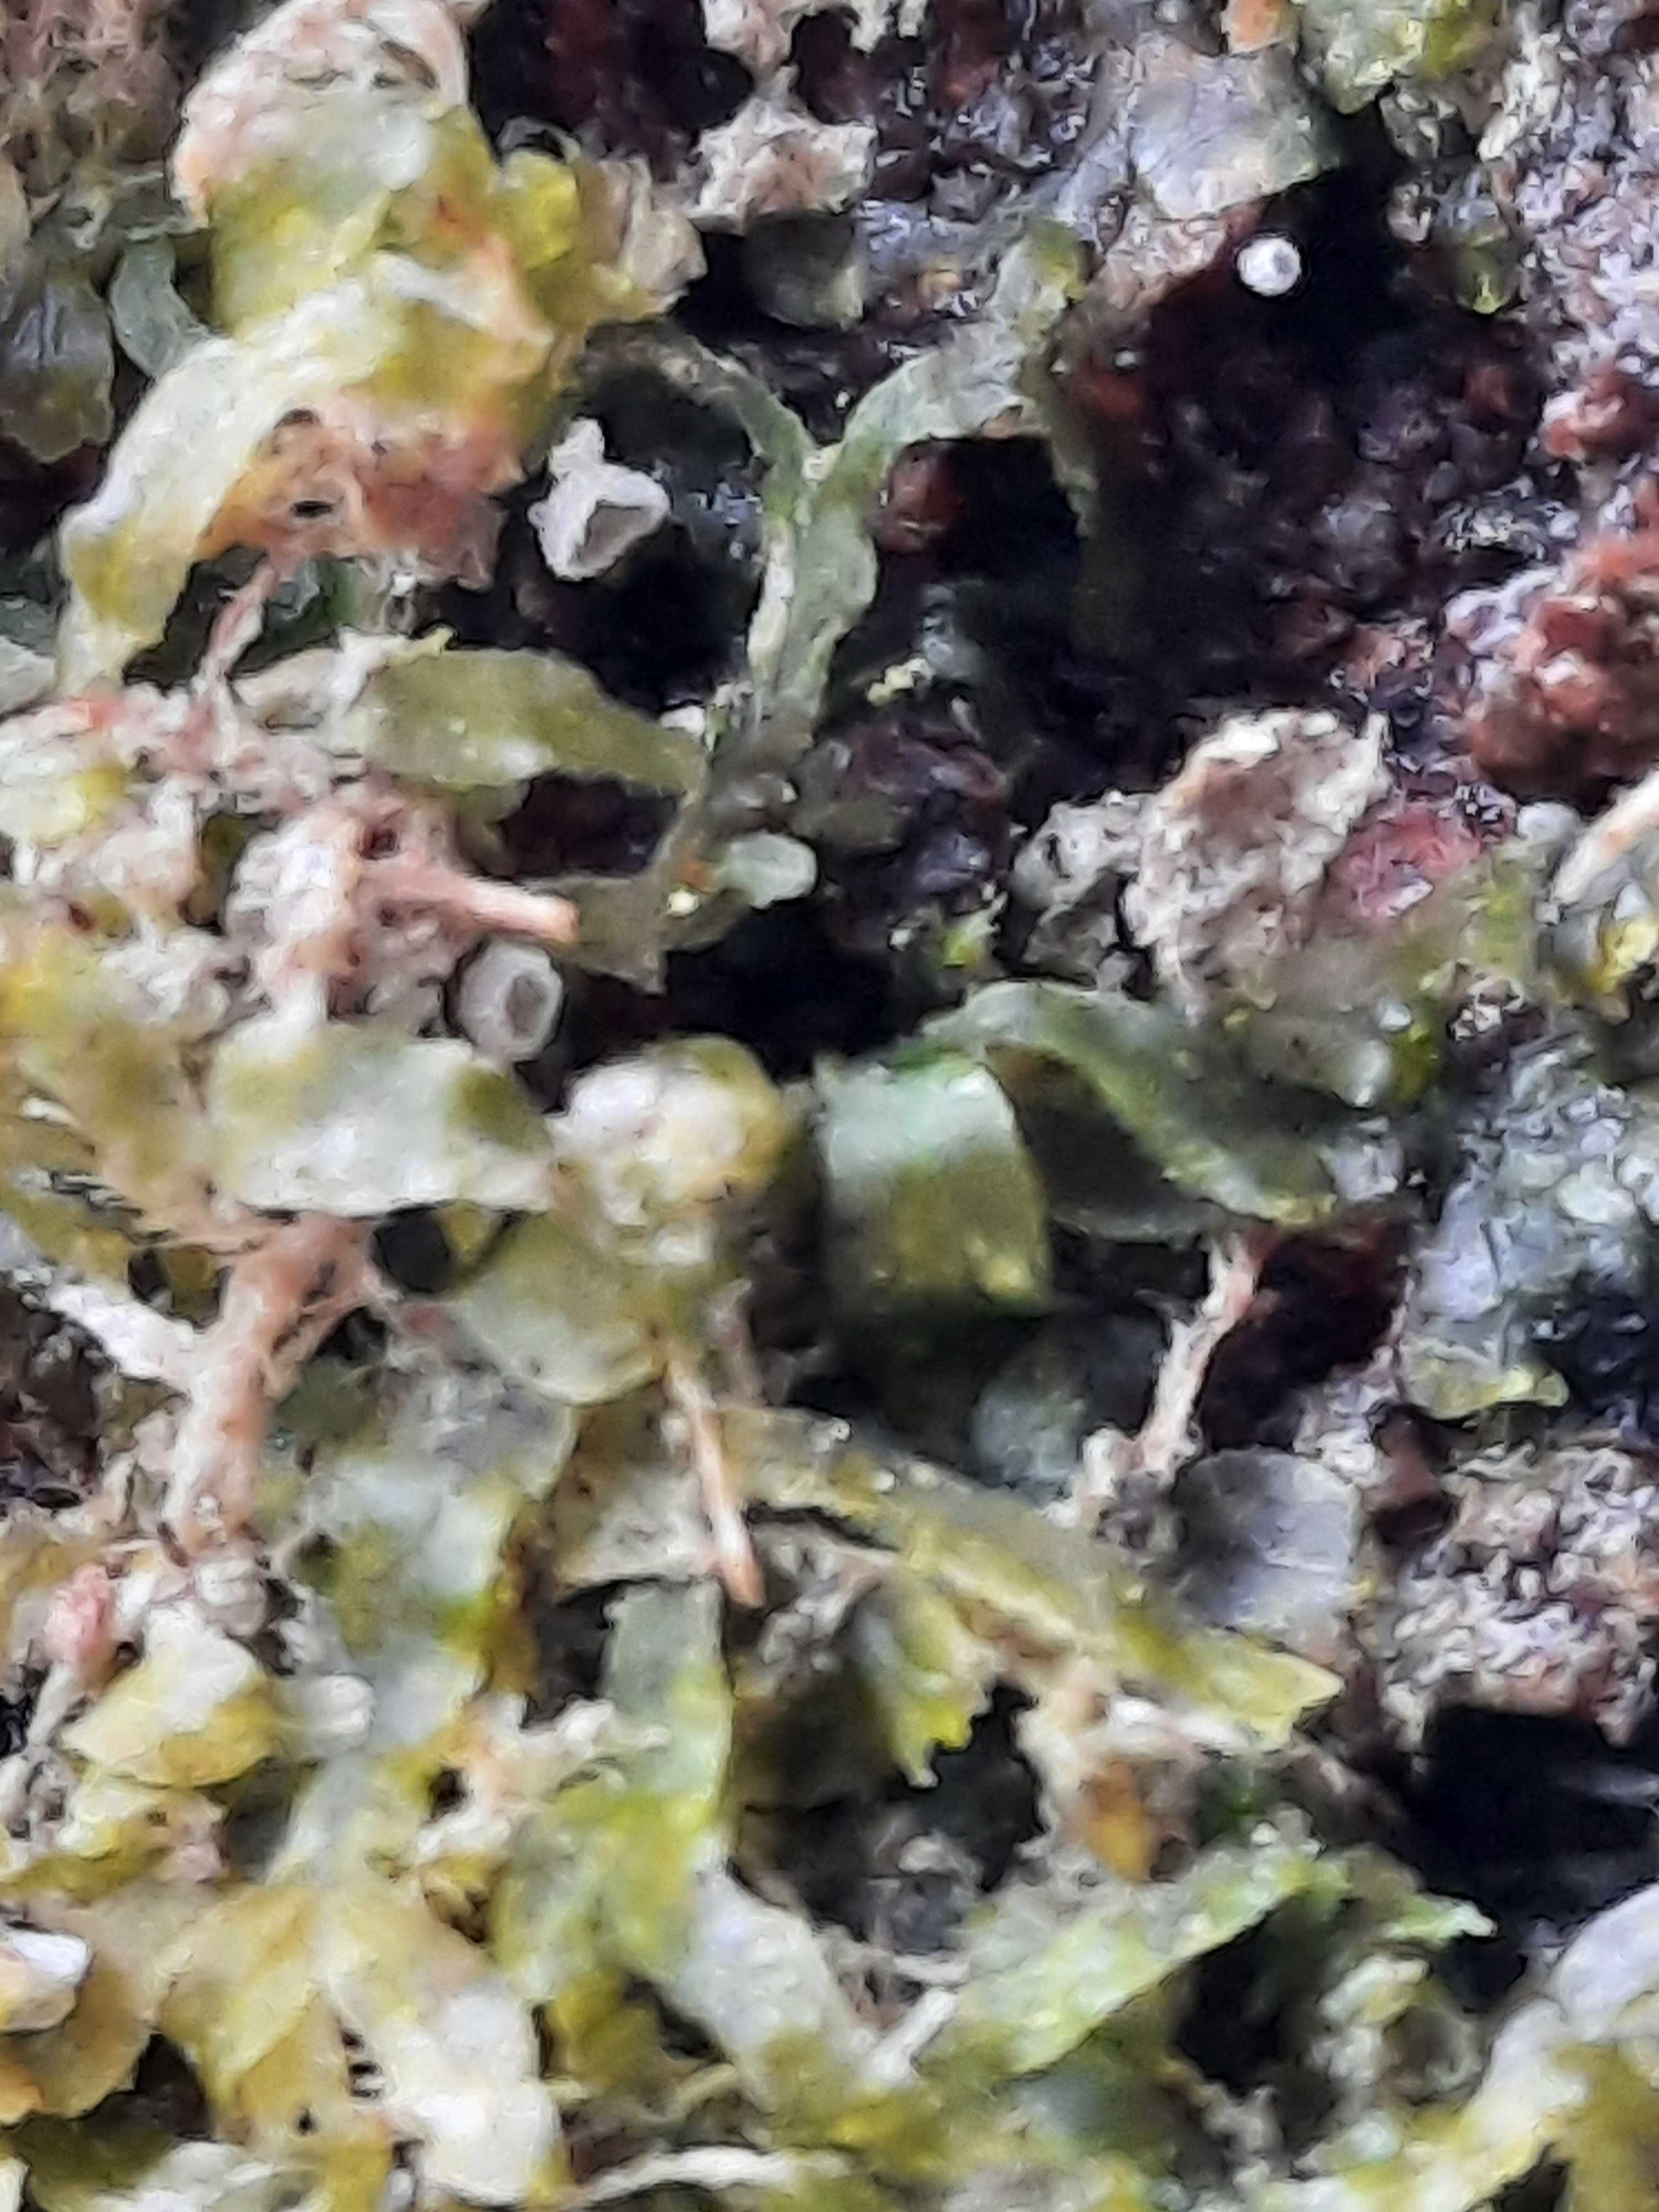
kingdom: Fungi
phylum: Basidiomycota
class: Agaricomycetes
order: Agaricales
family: Chromocyphellaceae
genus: Chromocyphella
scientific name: Chromocyphella muscicola
